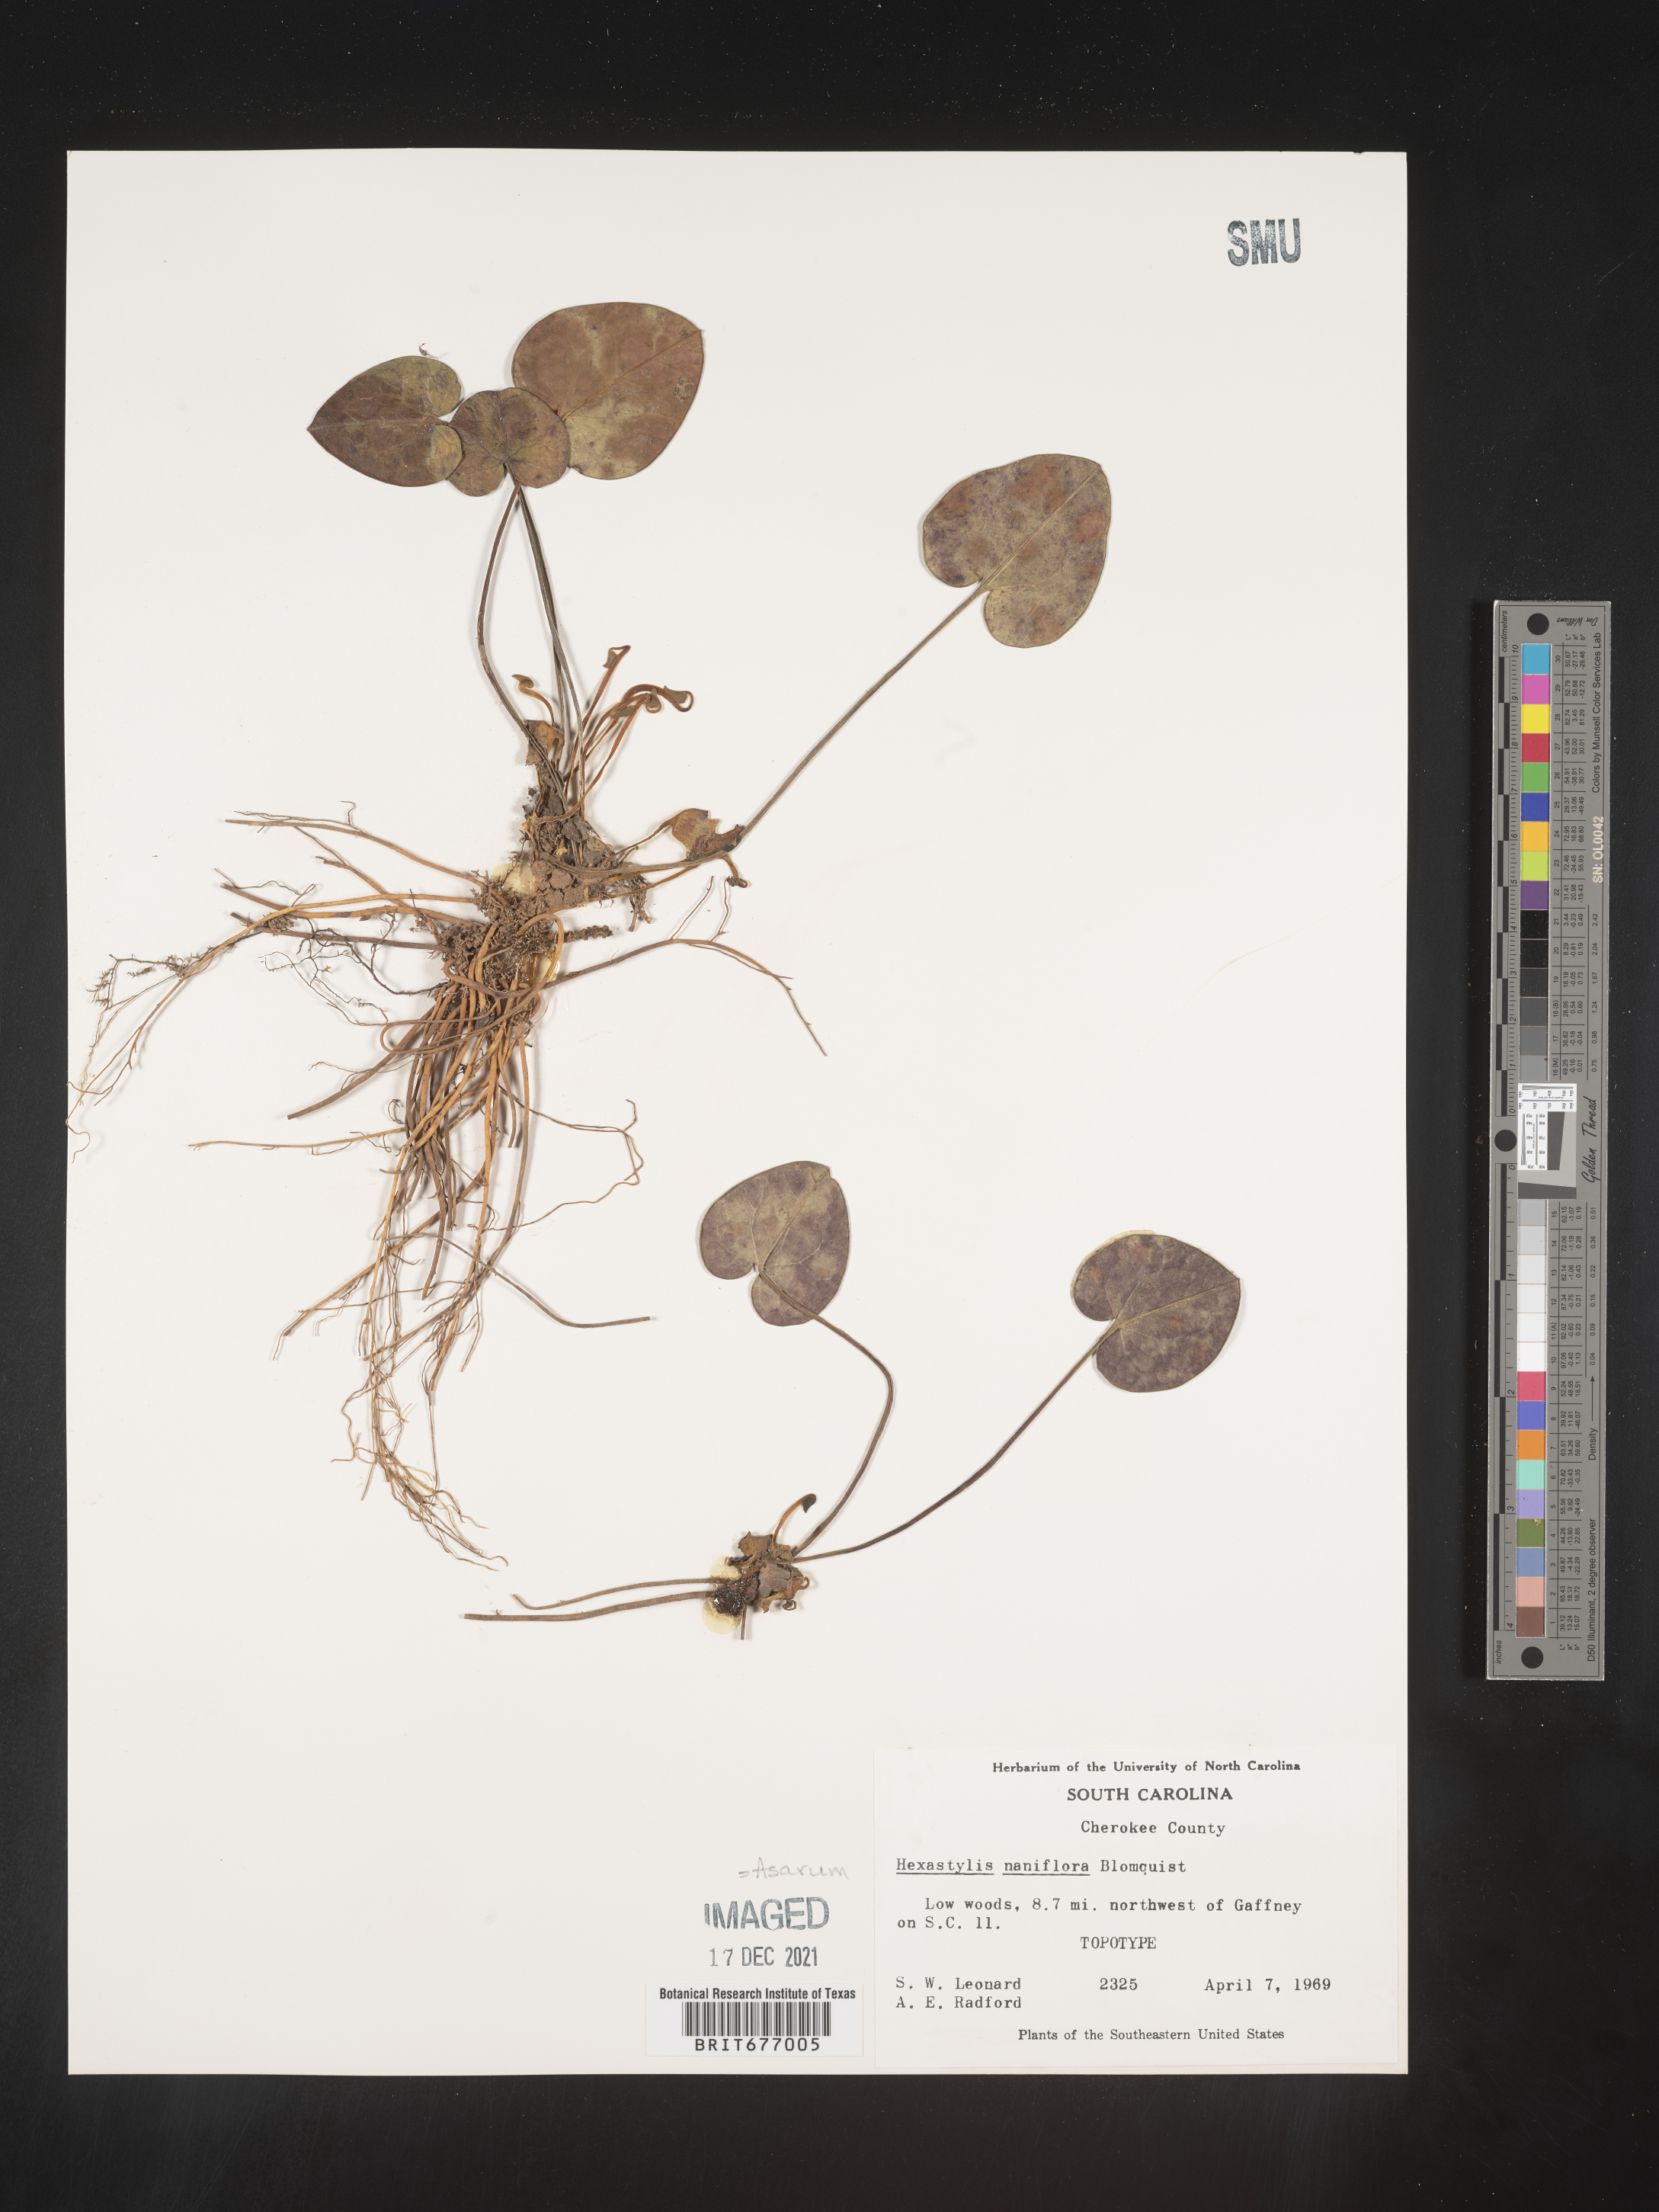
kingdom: Plantae
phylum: Tracheophyta
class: Magnoliopsida
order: Piperales
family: Aristolochiaceae
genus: Asarum
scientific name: Asarum
